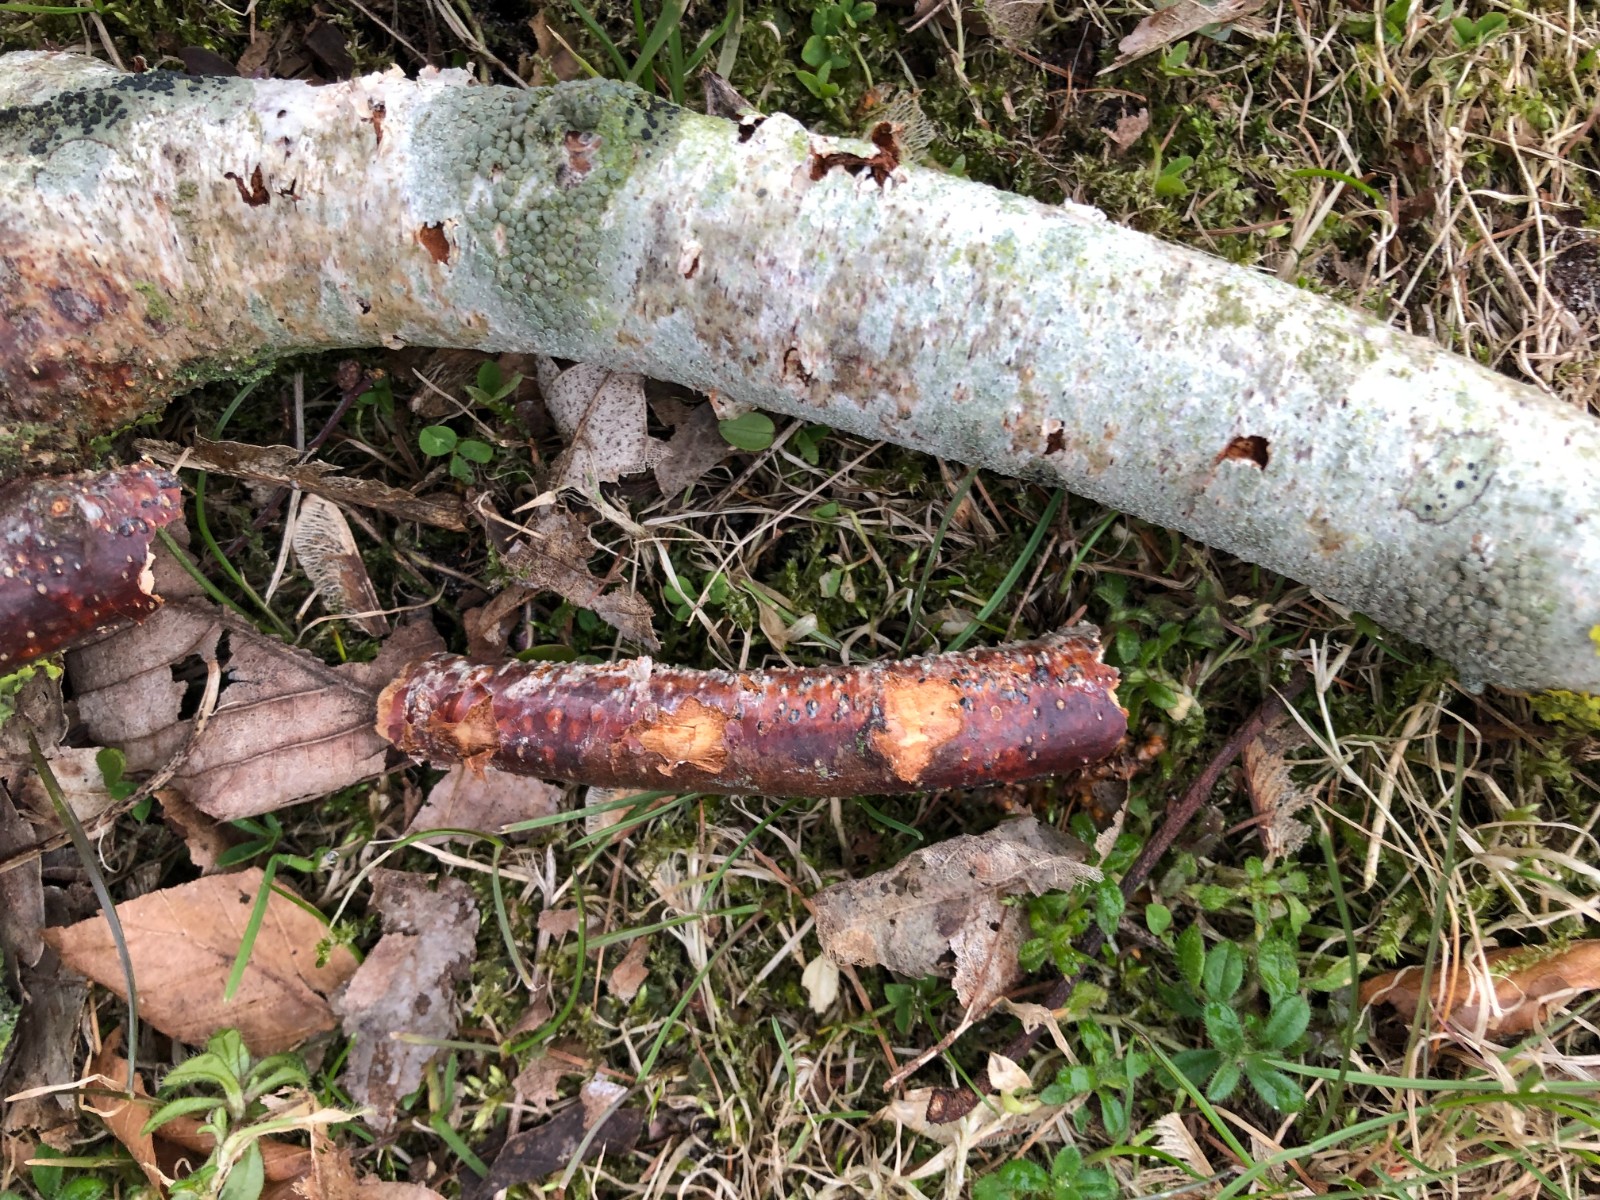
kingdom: Fungi
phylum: Ascomycota
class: Sordariomycetes
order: Diaporthales
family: Melanconidaceae
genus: Melanconis
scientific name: Melanconis stilbostoma
